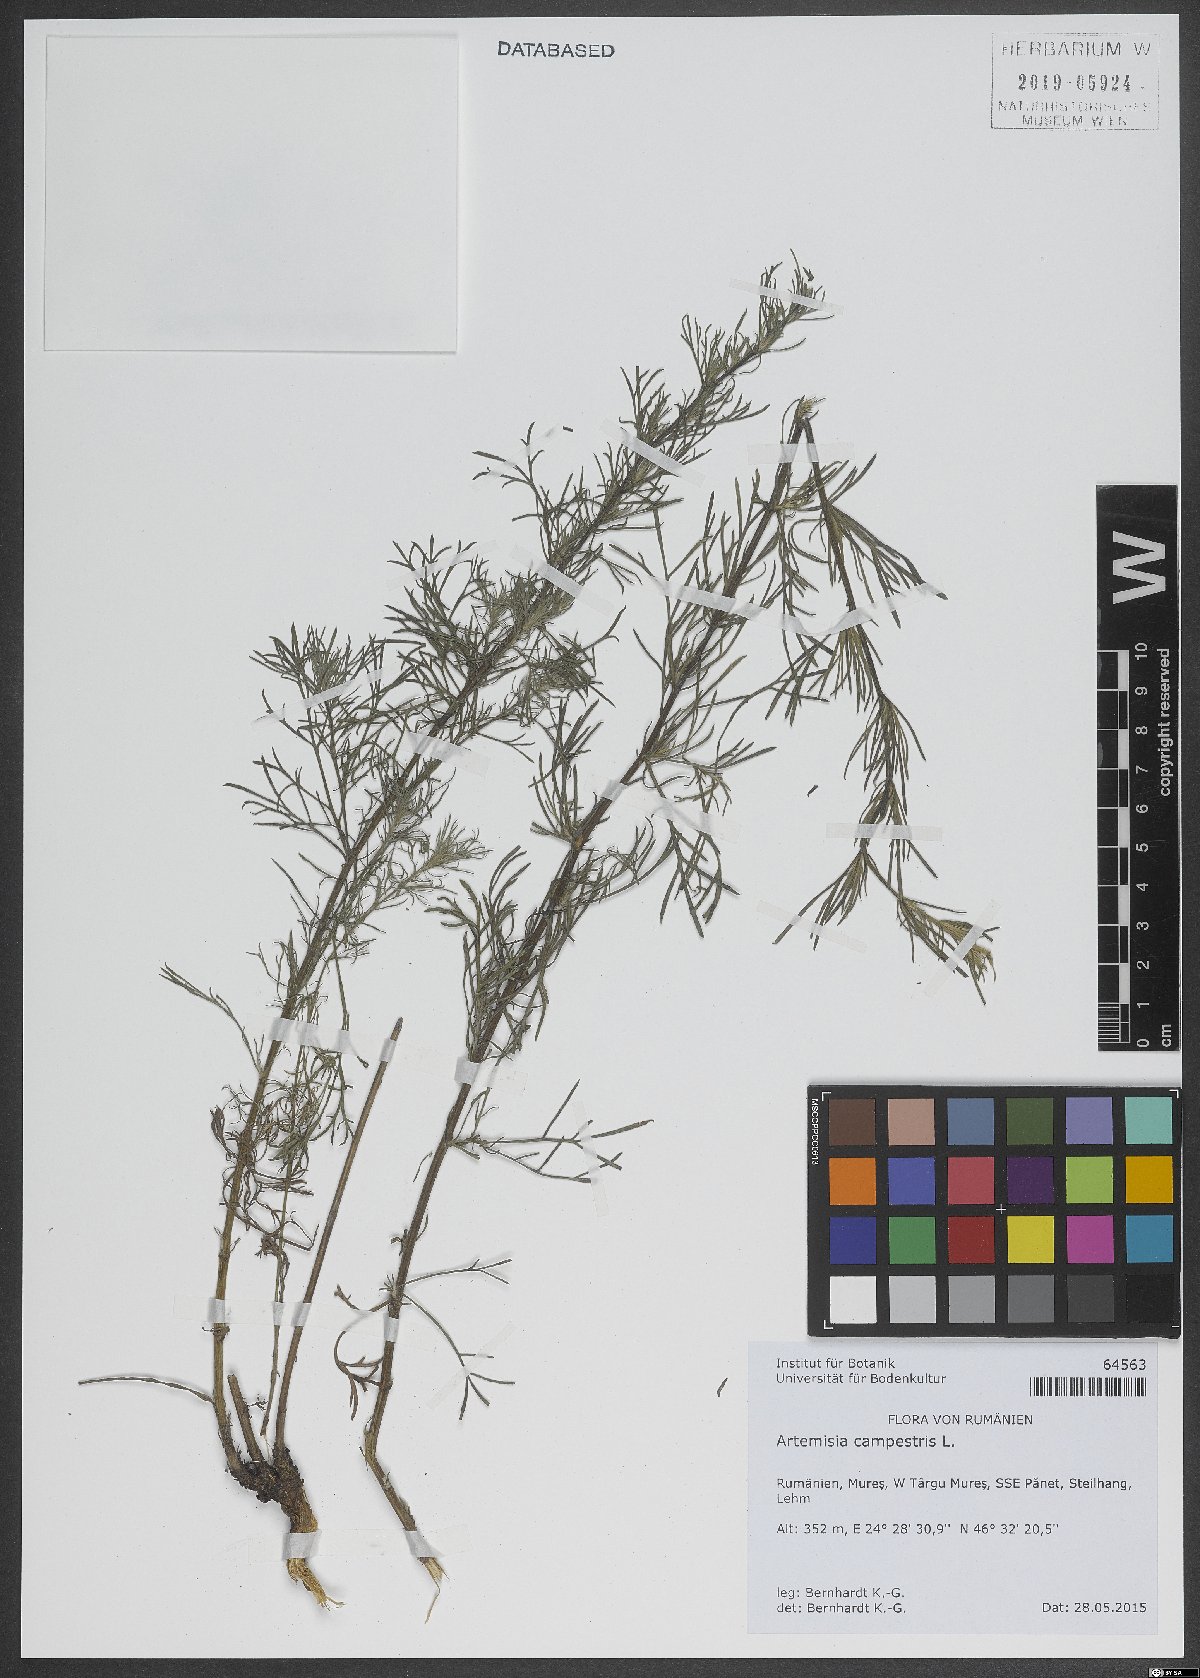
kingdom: Plantae
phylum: Tracheophyta
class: Magnoliopsida
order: Asterales
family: Asteraceae
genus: Artemisia
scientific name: Artemisia campestris
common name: Field wormwood
